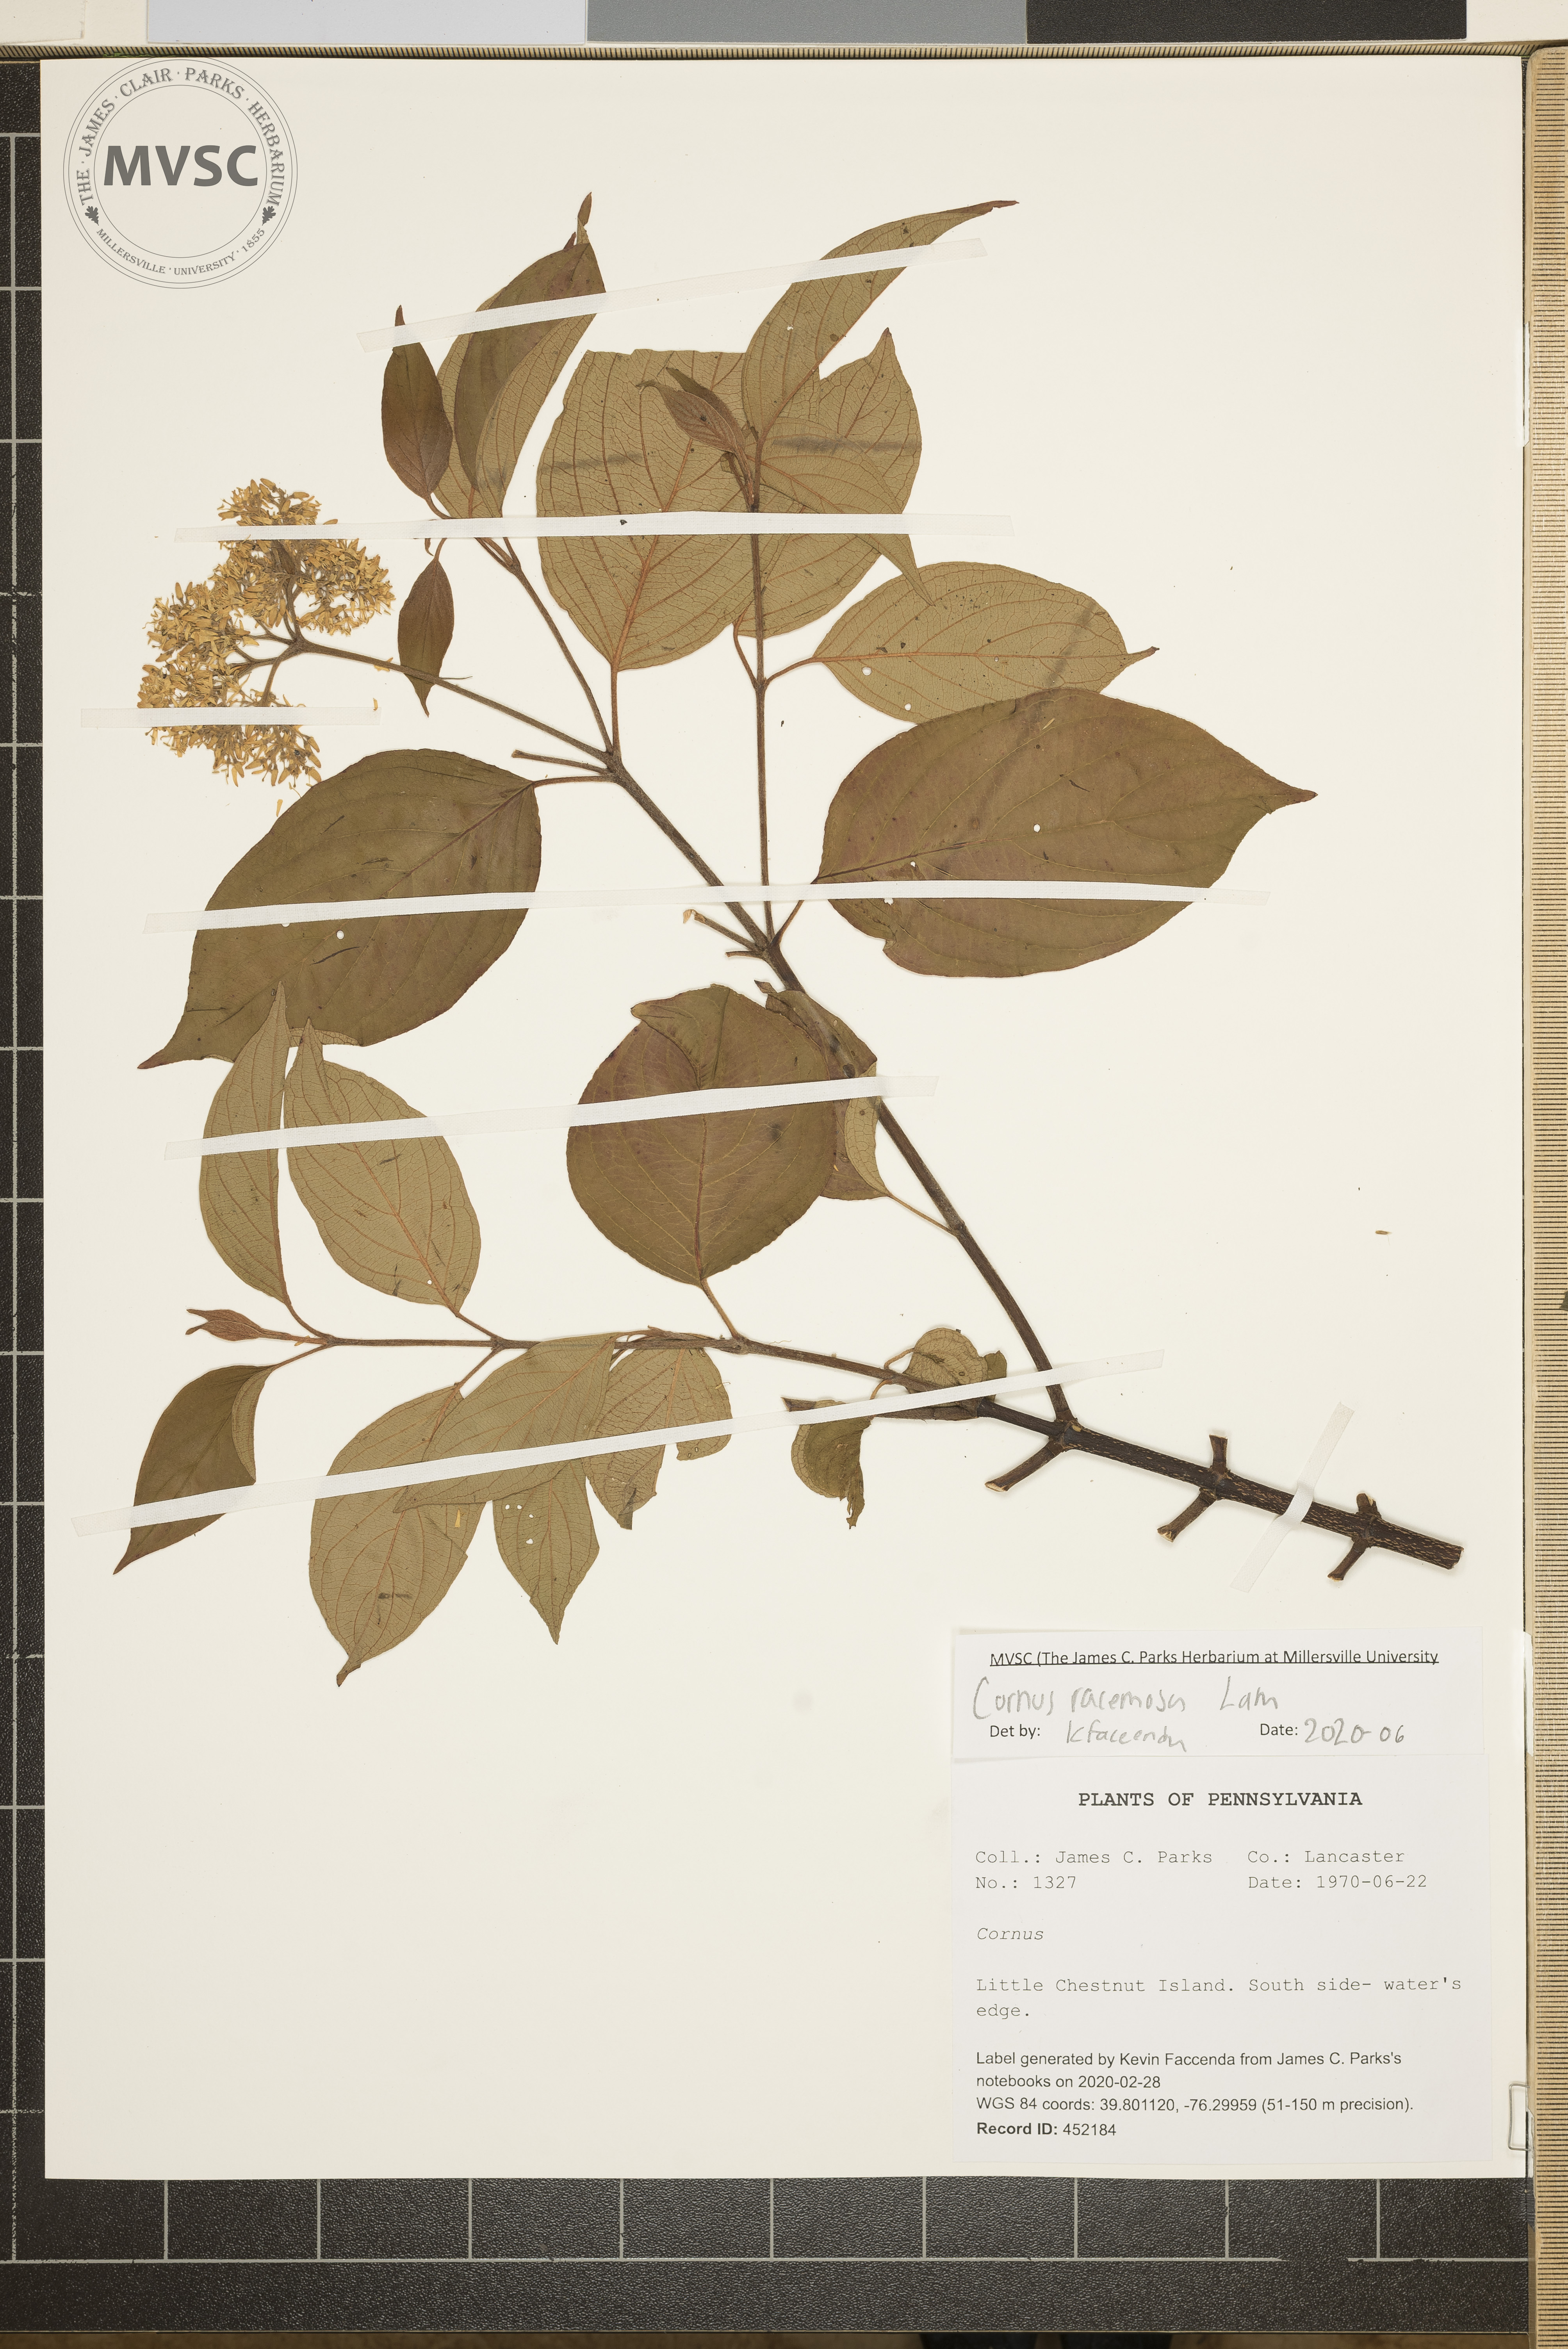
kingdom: Plantae
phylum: Tracheophyta
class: Magnoliopsida
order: Cornales
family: Cornaceae
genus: Cornus
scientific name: Cornus racemosa
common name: Panicled dogwood
